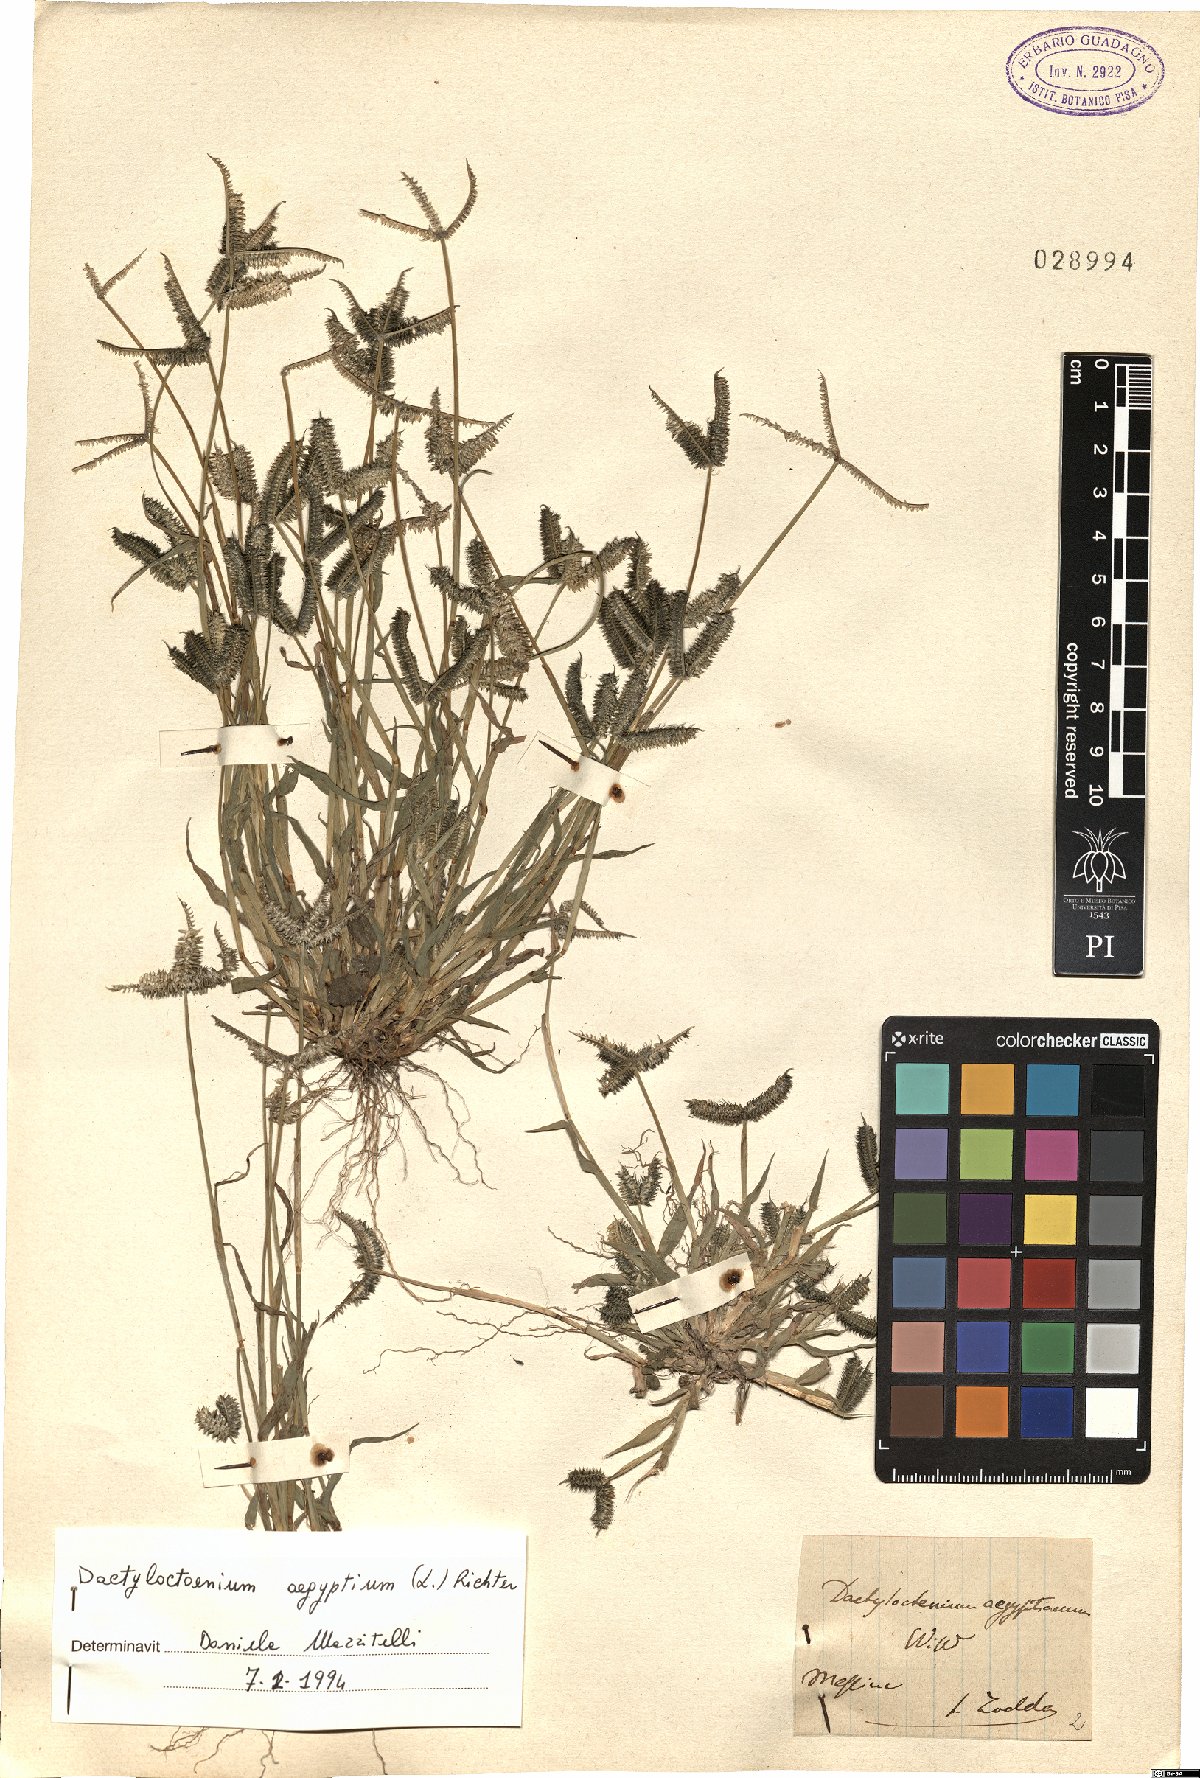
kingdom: Plantae
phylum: Tracheophyta
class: Liliopsida
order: Poales
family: Poaceae
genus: Dactyloctenium
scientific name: Dactyloctenium aegyptium
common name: Egyptian grass
